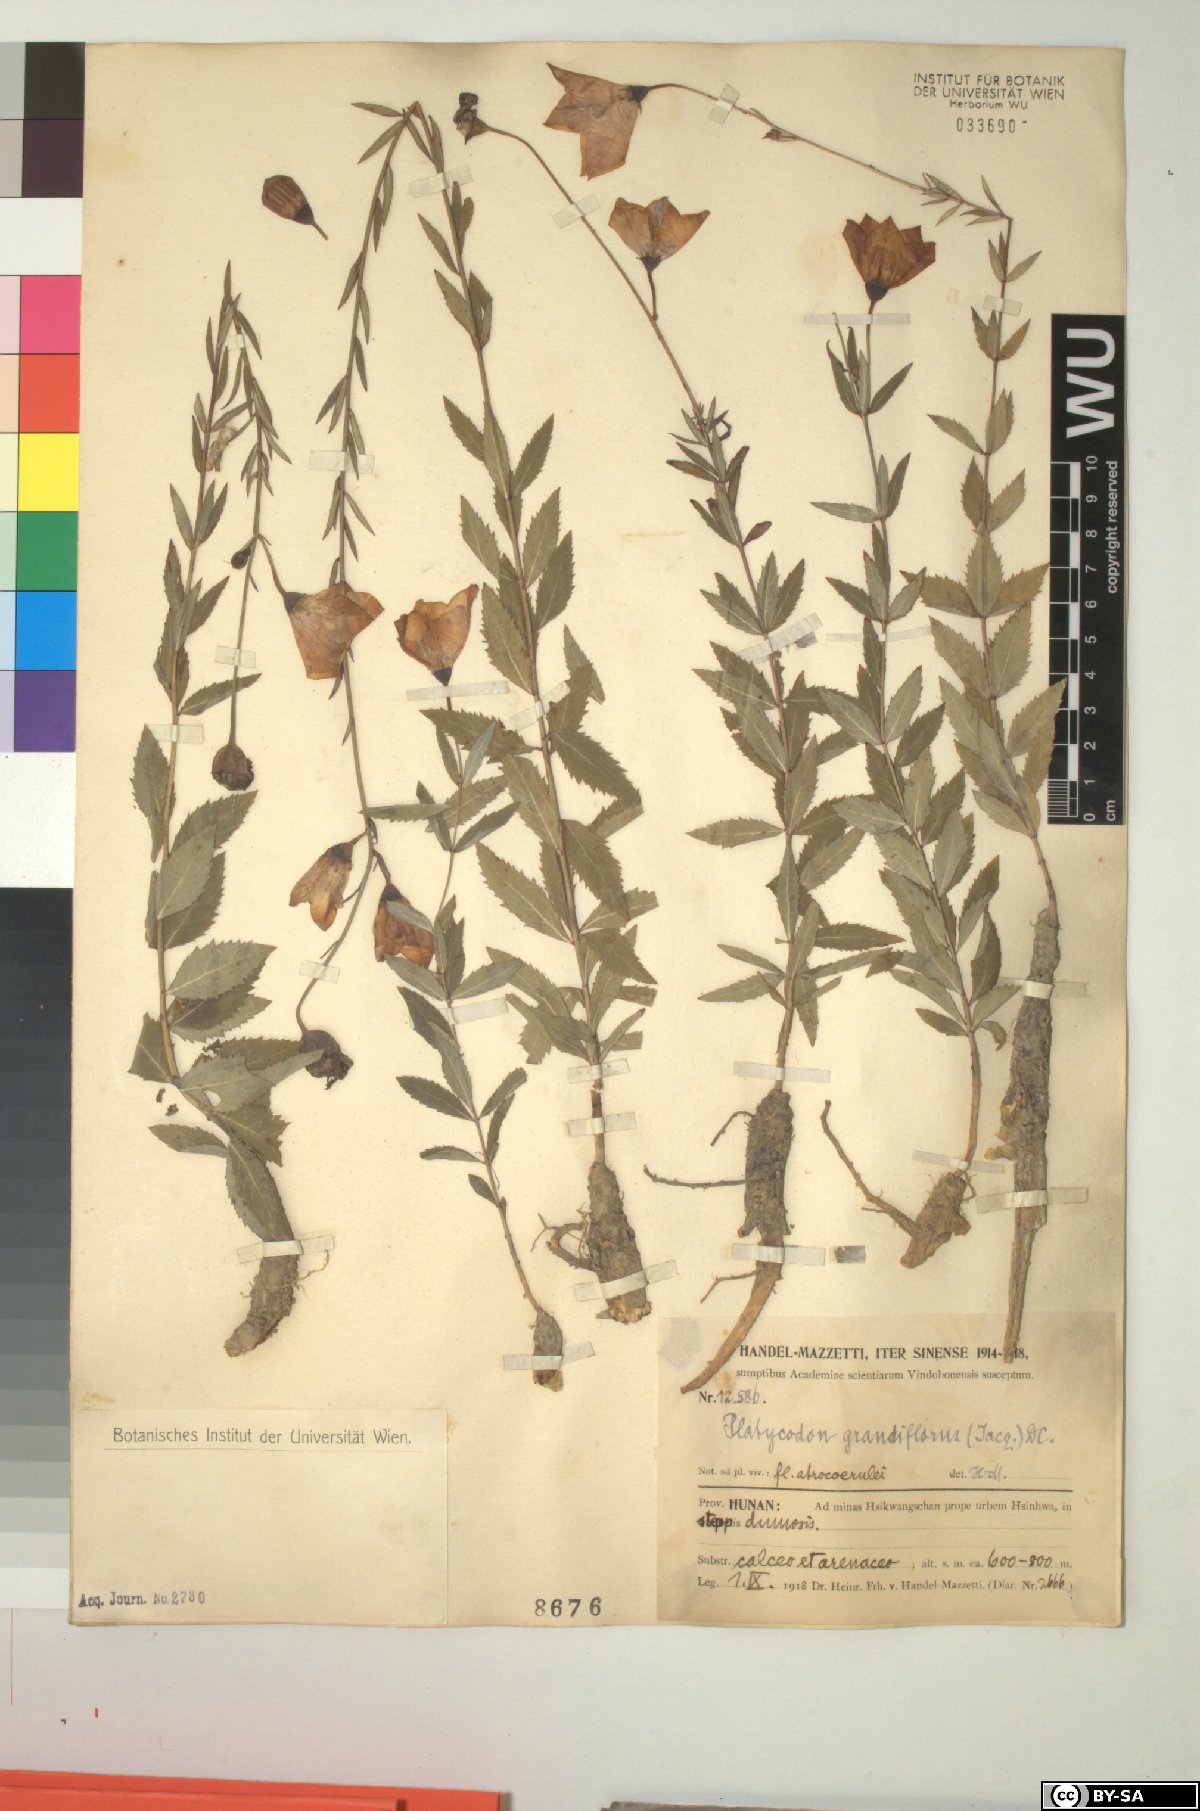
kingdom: Plantae
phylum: Tracheophyta
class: Magnoliopsida
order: Asterales
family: Campanulaceae
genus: Platycodon
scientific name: Platycodon grandiflorus
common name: Balloon-flower
